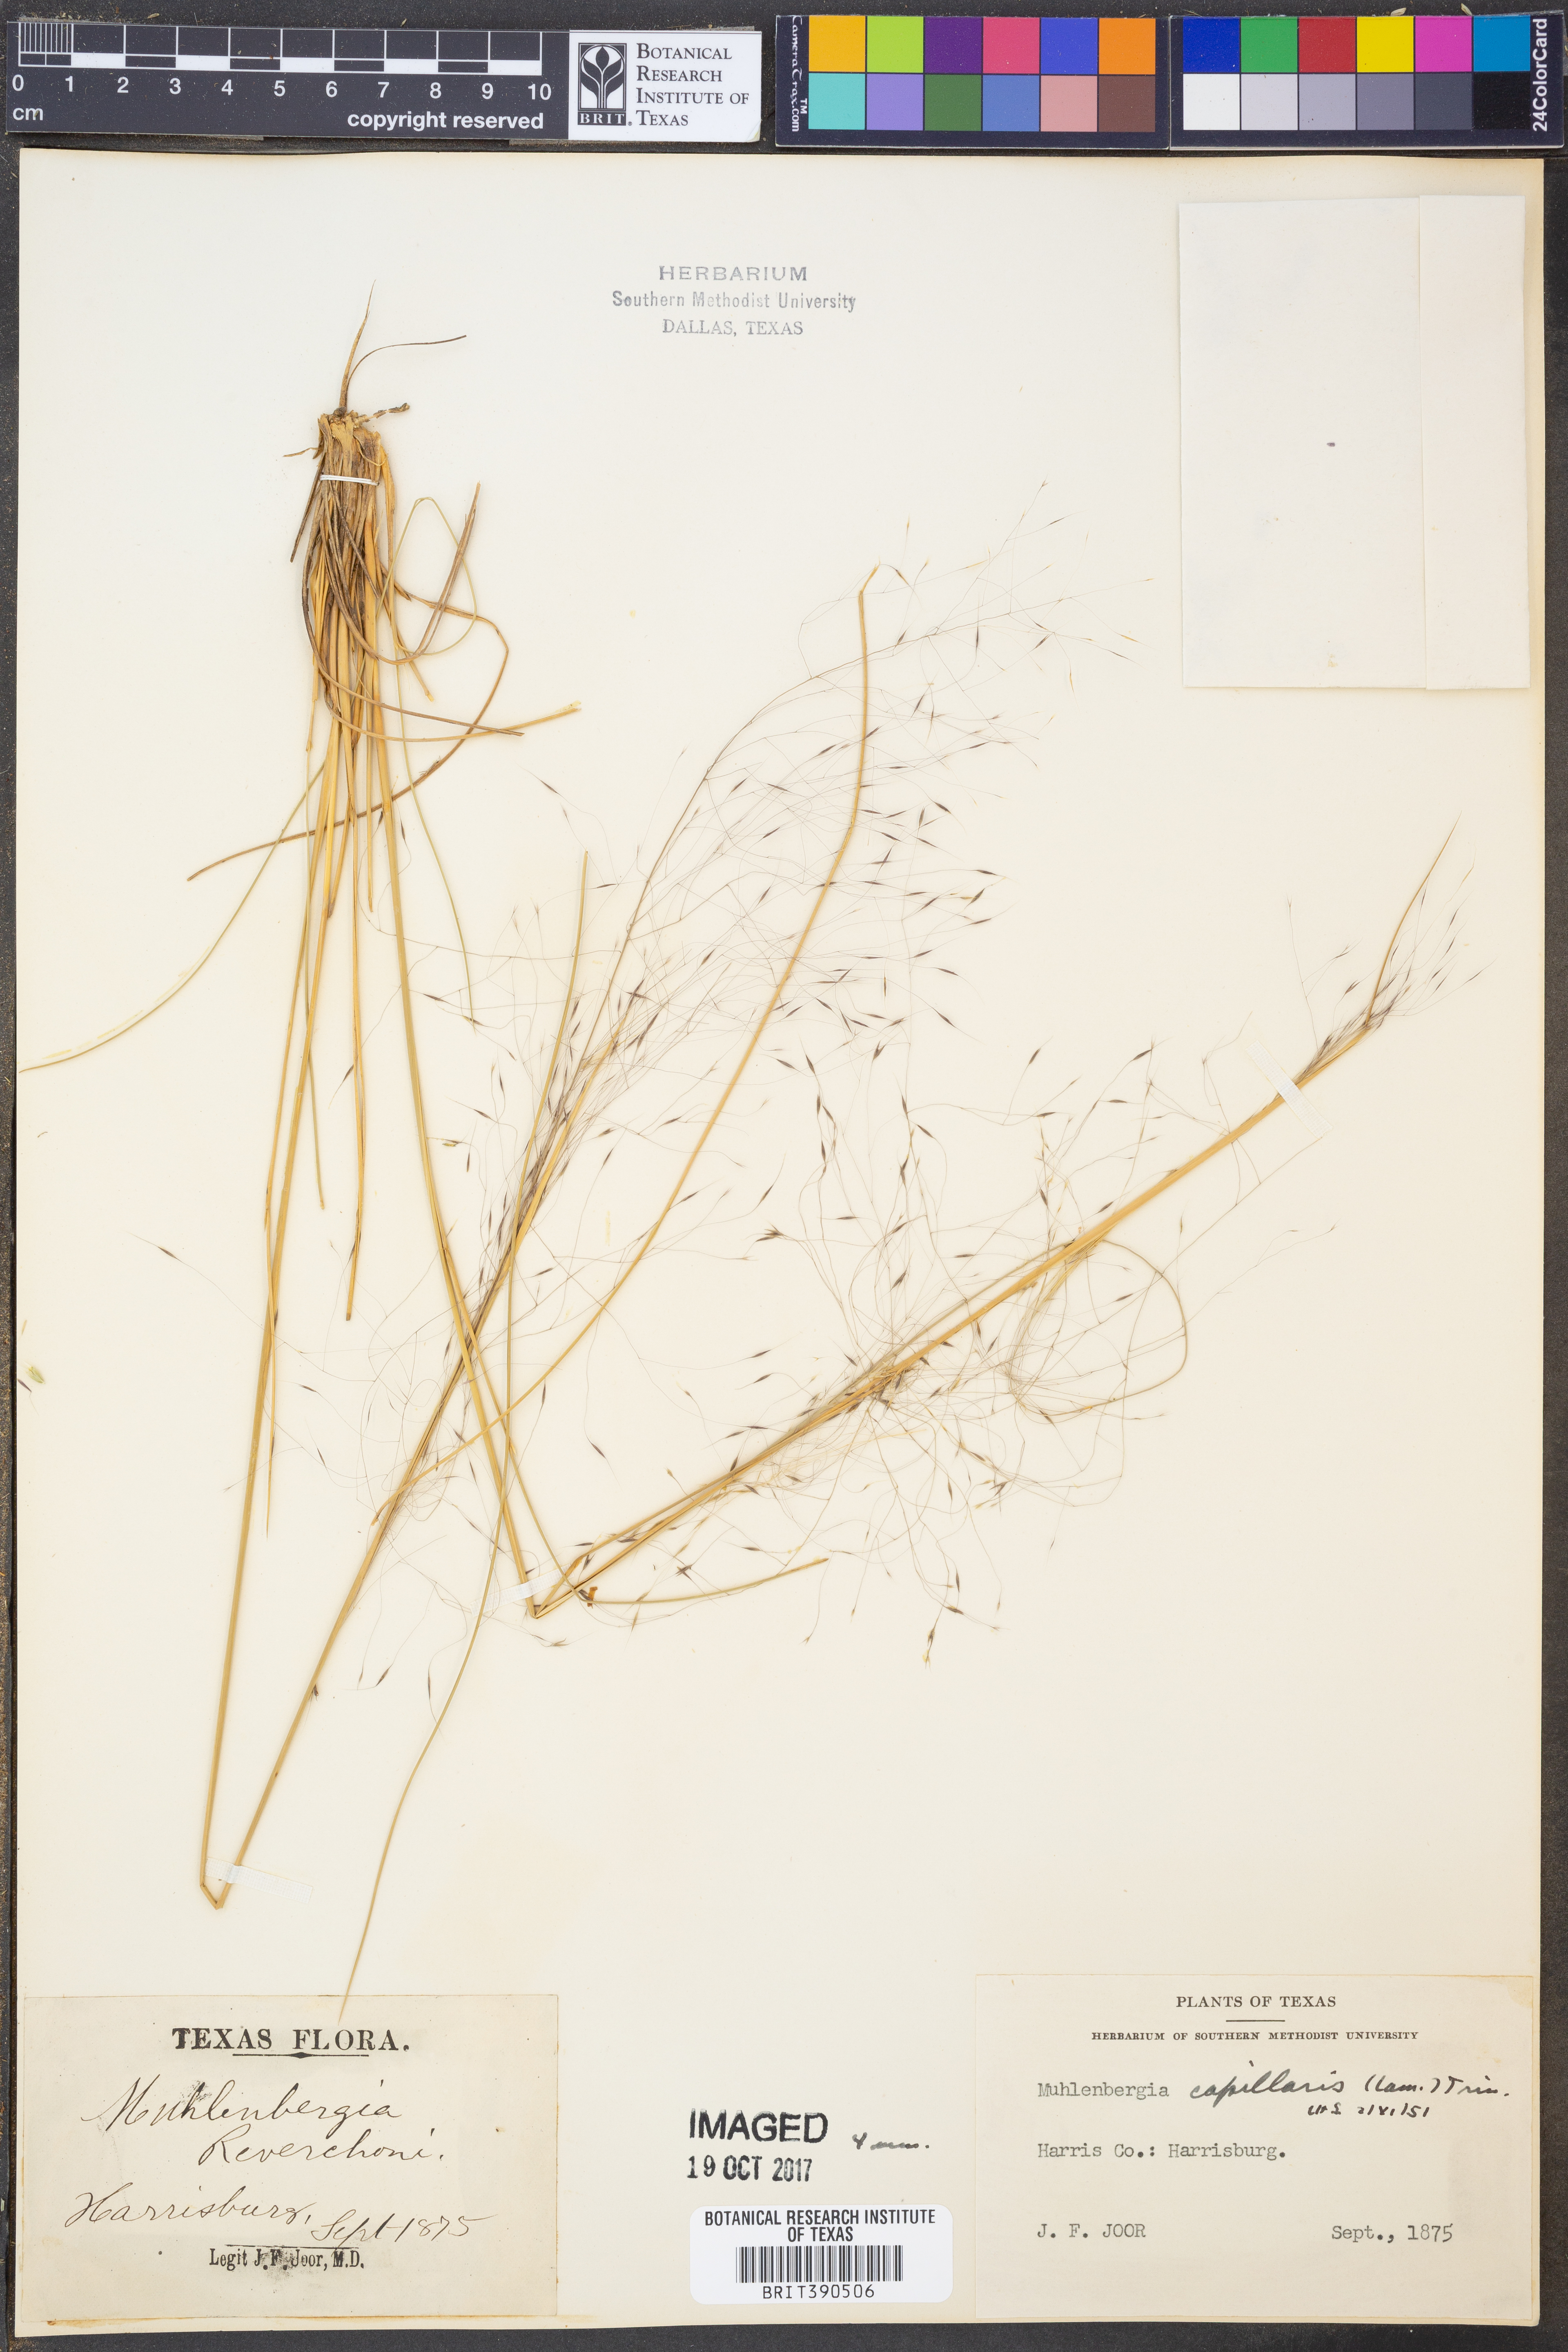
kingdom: Plantae
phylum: Tracheophyta
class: Liliopsida
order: Poales
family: Poaceae
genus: Muhlenbergia
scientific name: Muhlenbergia capillaris
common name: Purple grass
